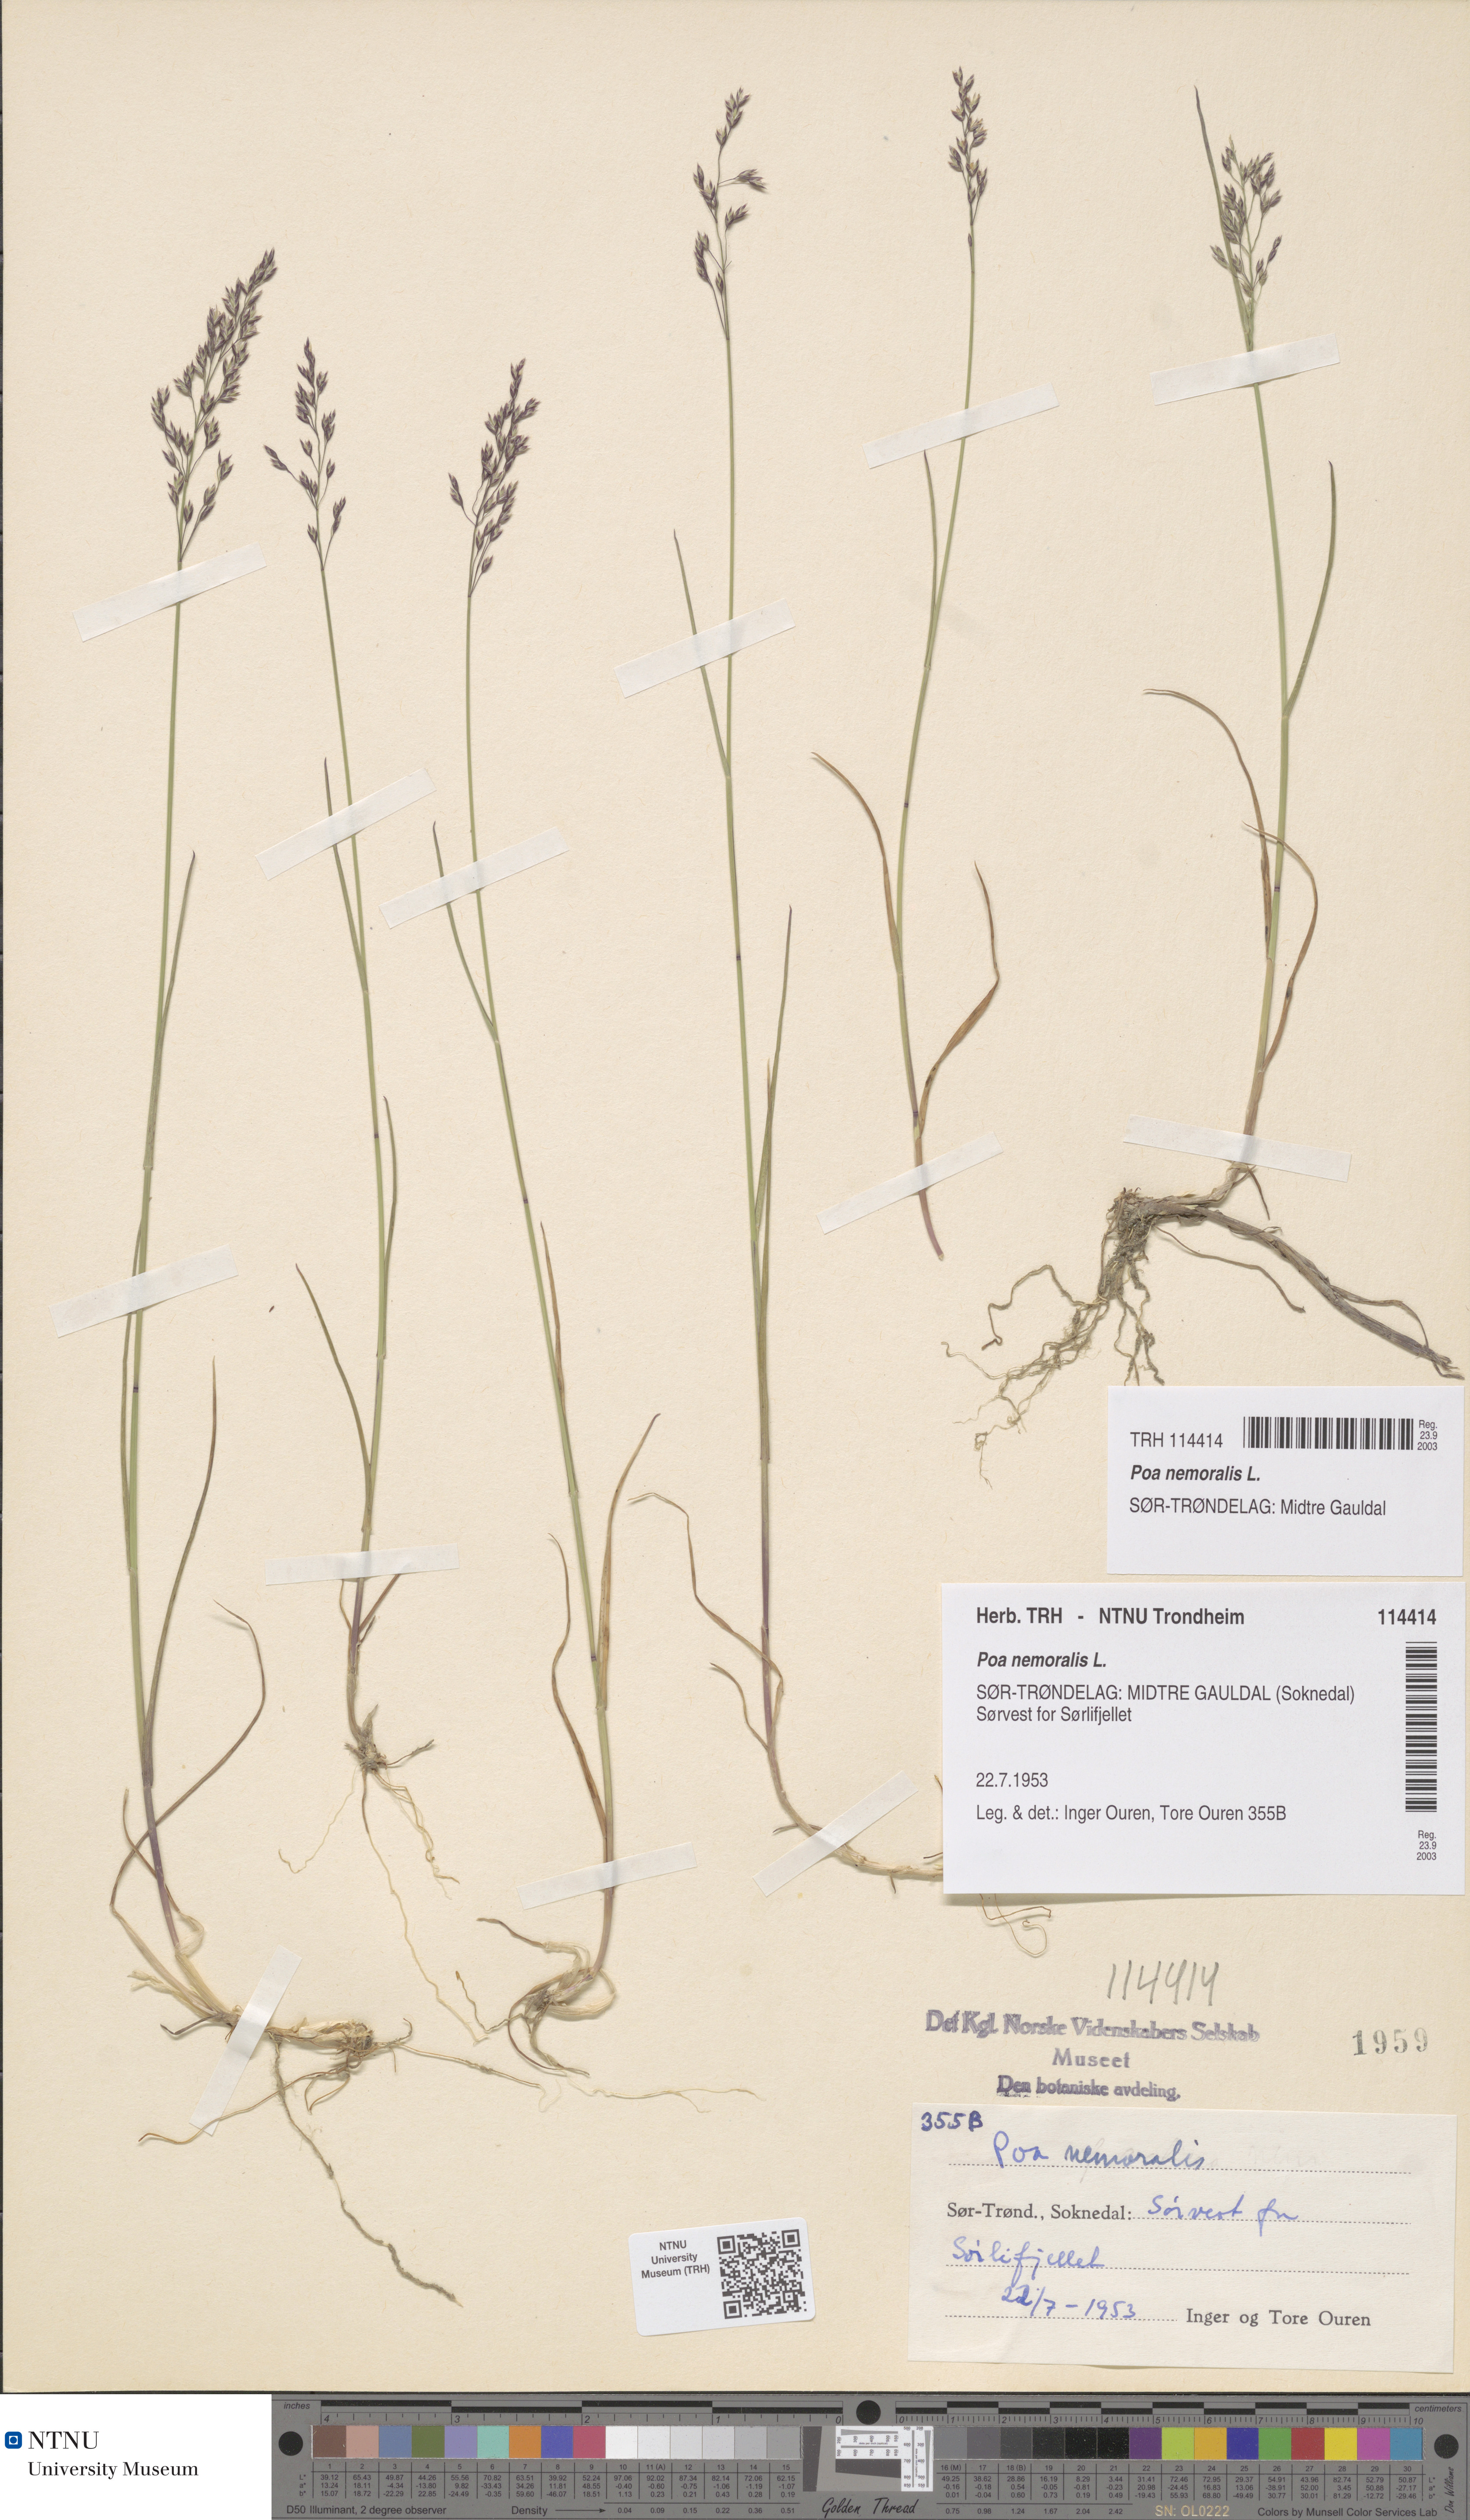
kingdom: Plantae
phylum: Tracheophyta
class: Liliopsida
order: Poales
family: Poaceae
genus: Poa
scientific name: Poa nemoralis
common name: Wood bluegrass
